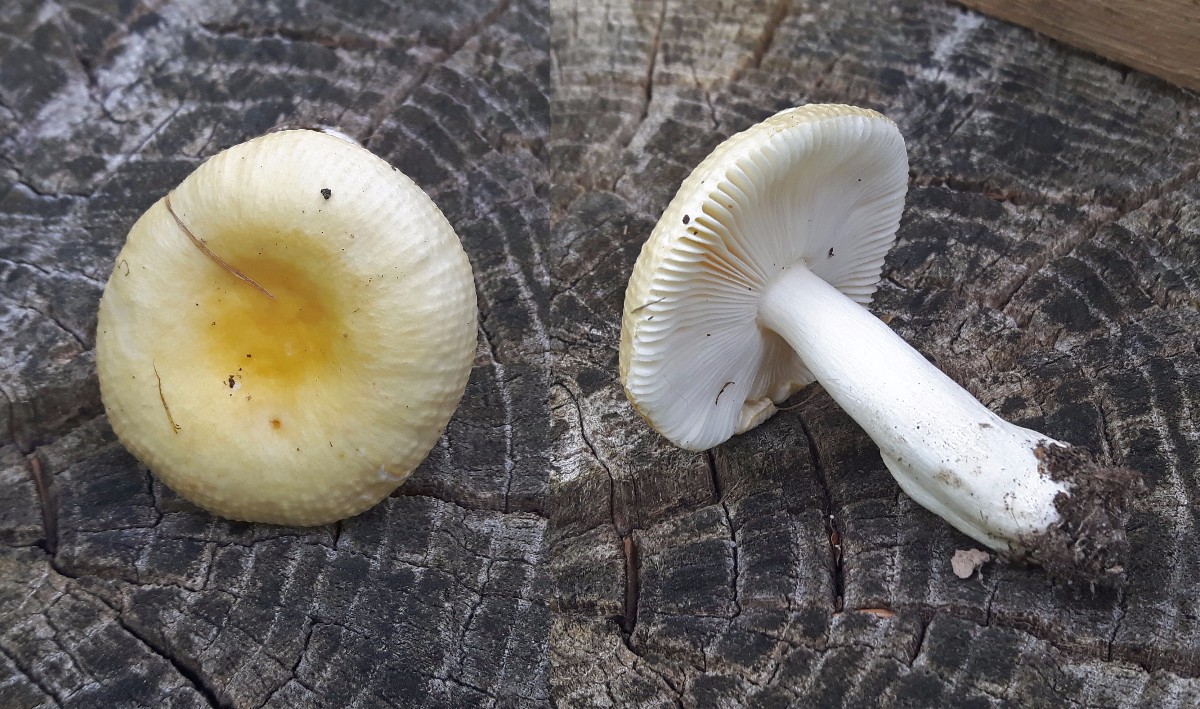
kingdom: Fungi
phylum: Basidiomycota
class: Agaricomycetes
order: Russulales
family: Russulaceae
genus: Russula
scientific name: Russula solaris
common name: sol-skørhat
